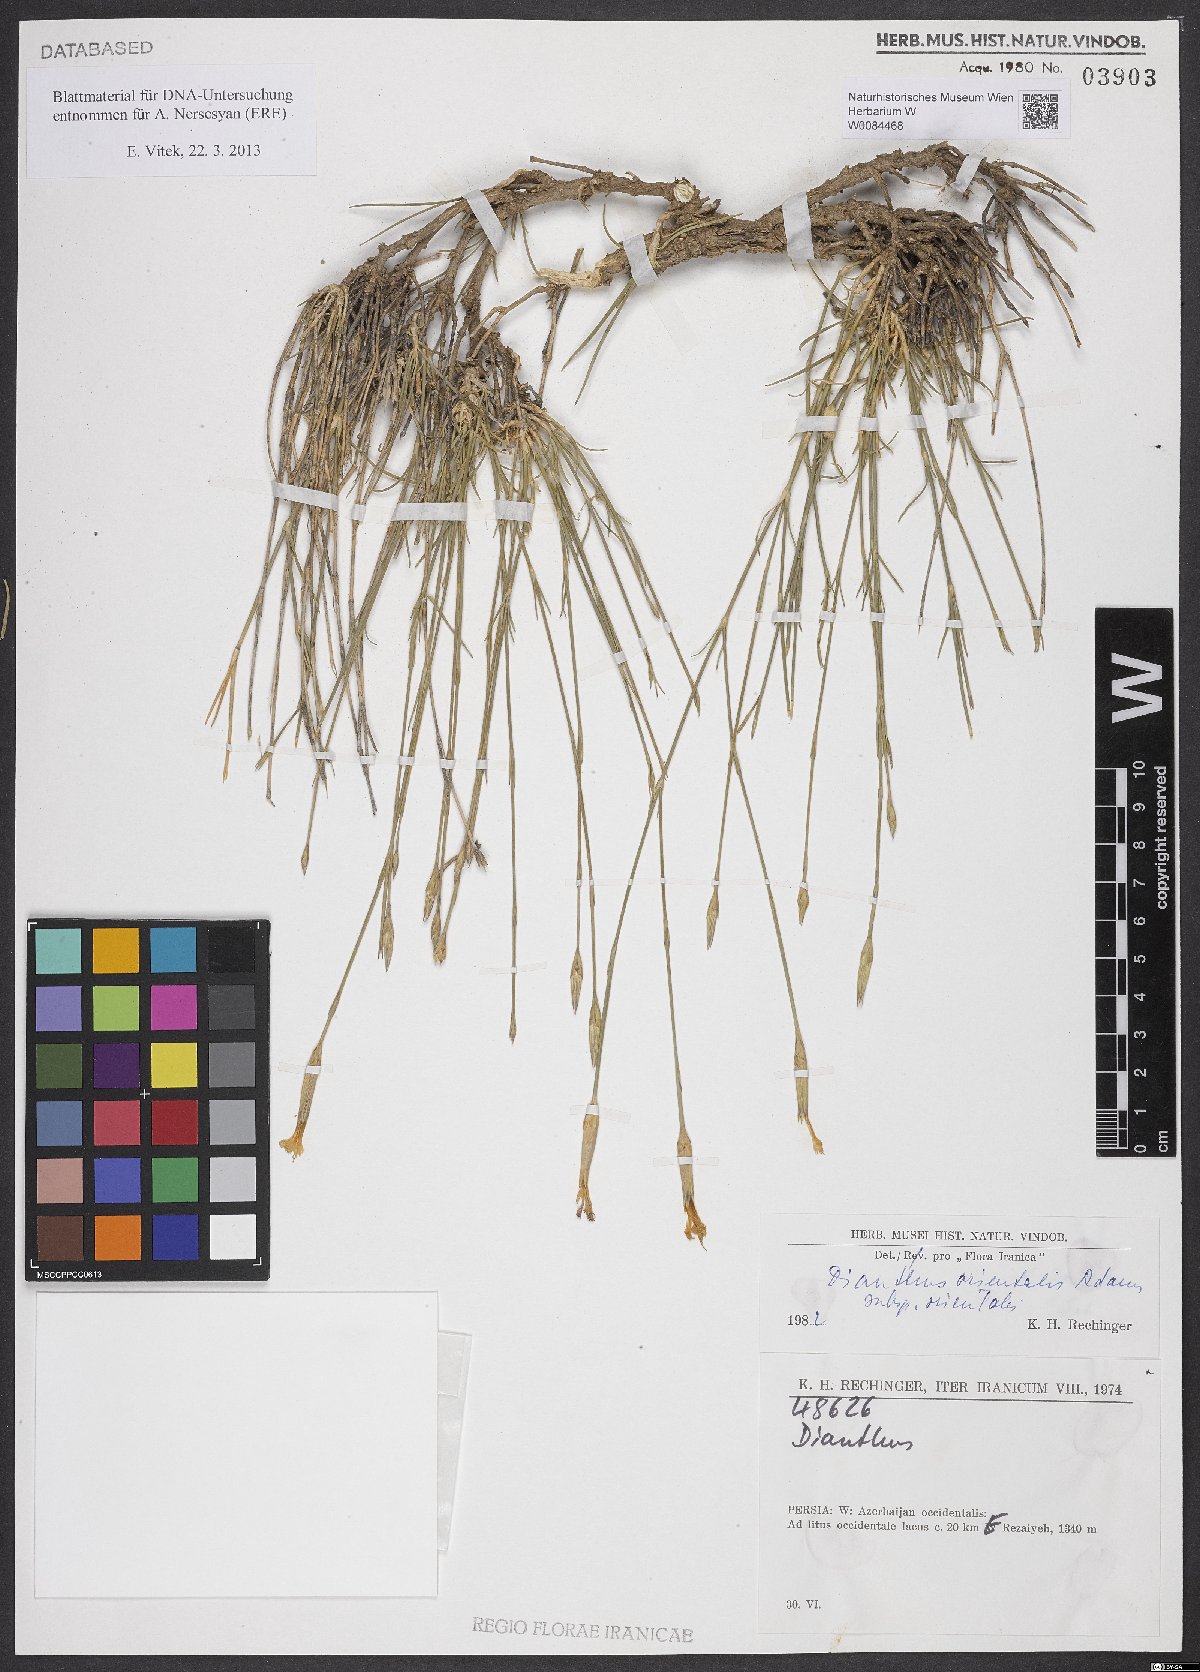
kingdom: Plantae
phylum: Tracheophyta
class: Magnoliopsida
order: Caryophyllales
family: Caryophyllaceae
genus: Dianthus
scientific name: Dianthus orientalis
